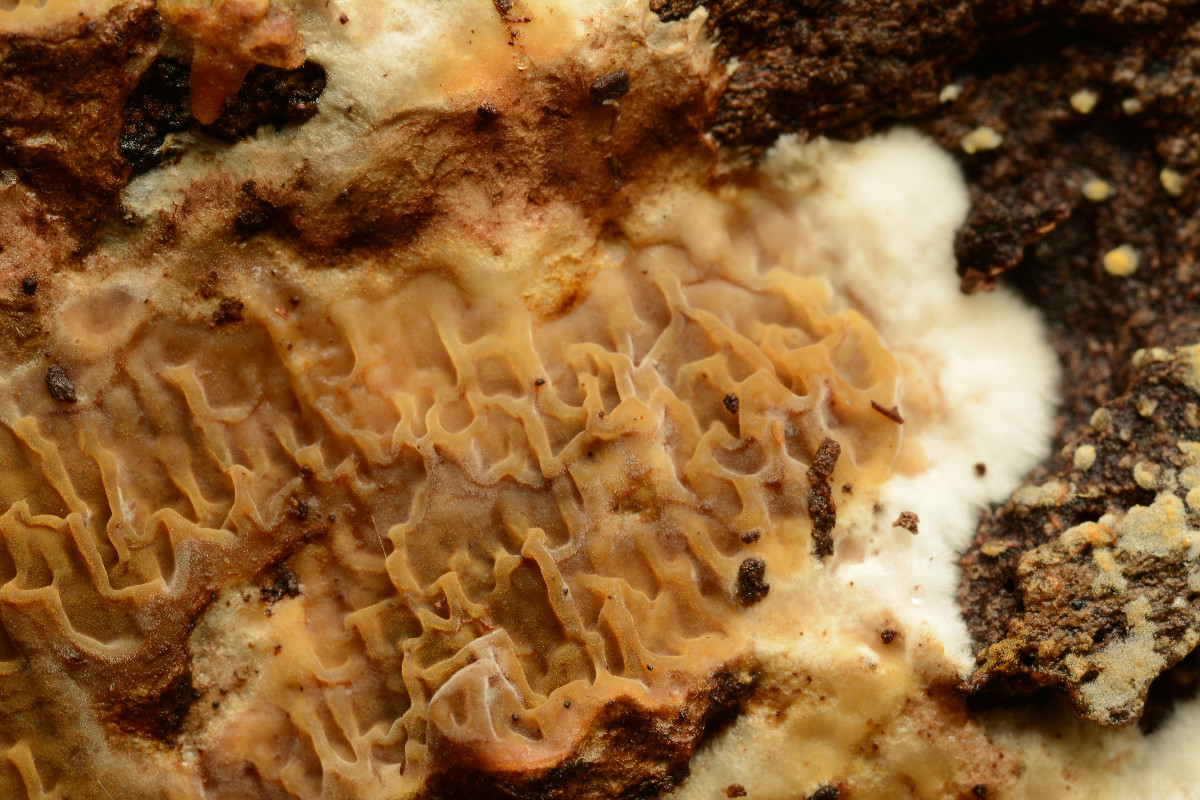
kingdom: Fungi
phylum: Basidiomycota
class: Agaricomycetes
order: Boletales
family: Serpulaceae
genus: Serpula
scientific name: Serpula himantioides
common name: tyndkødet hussvamp
